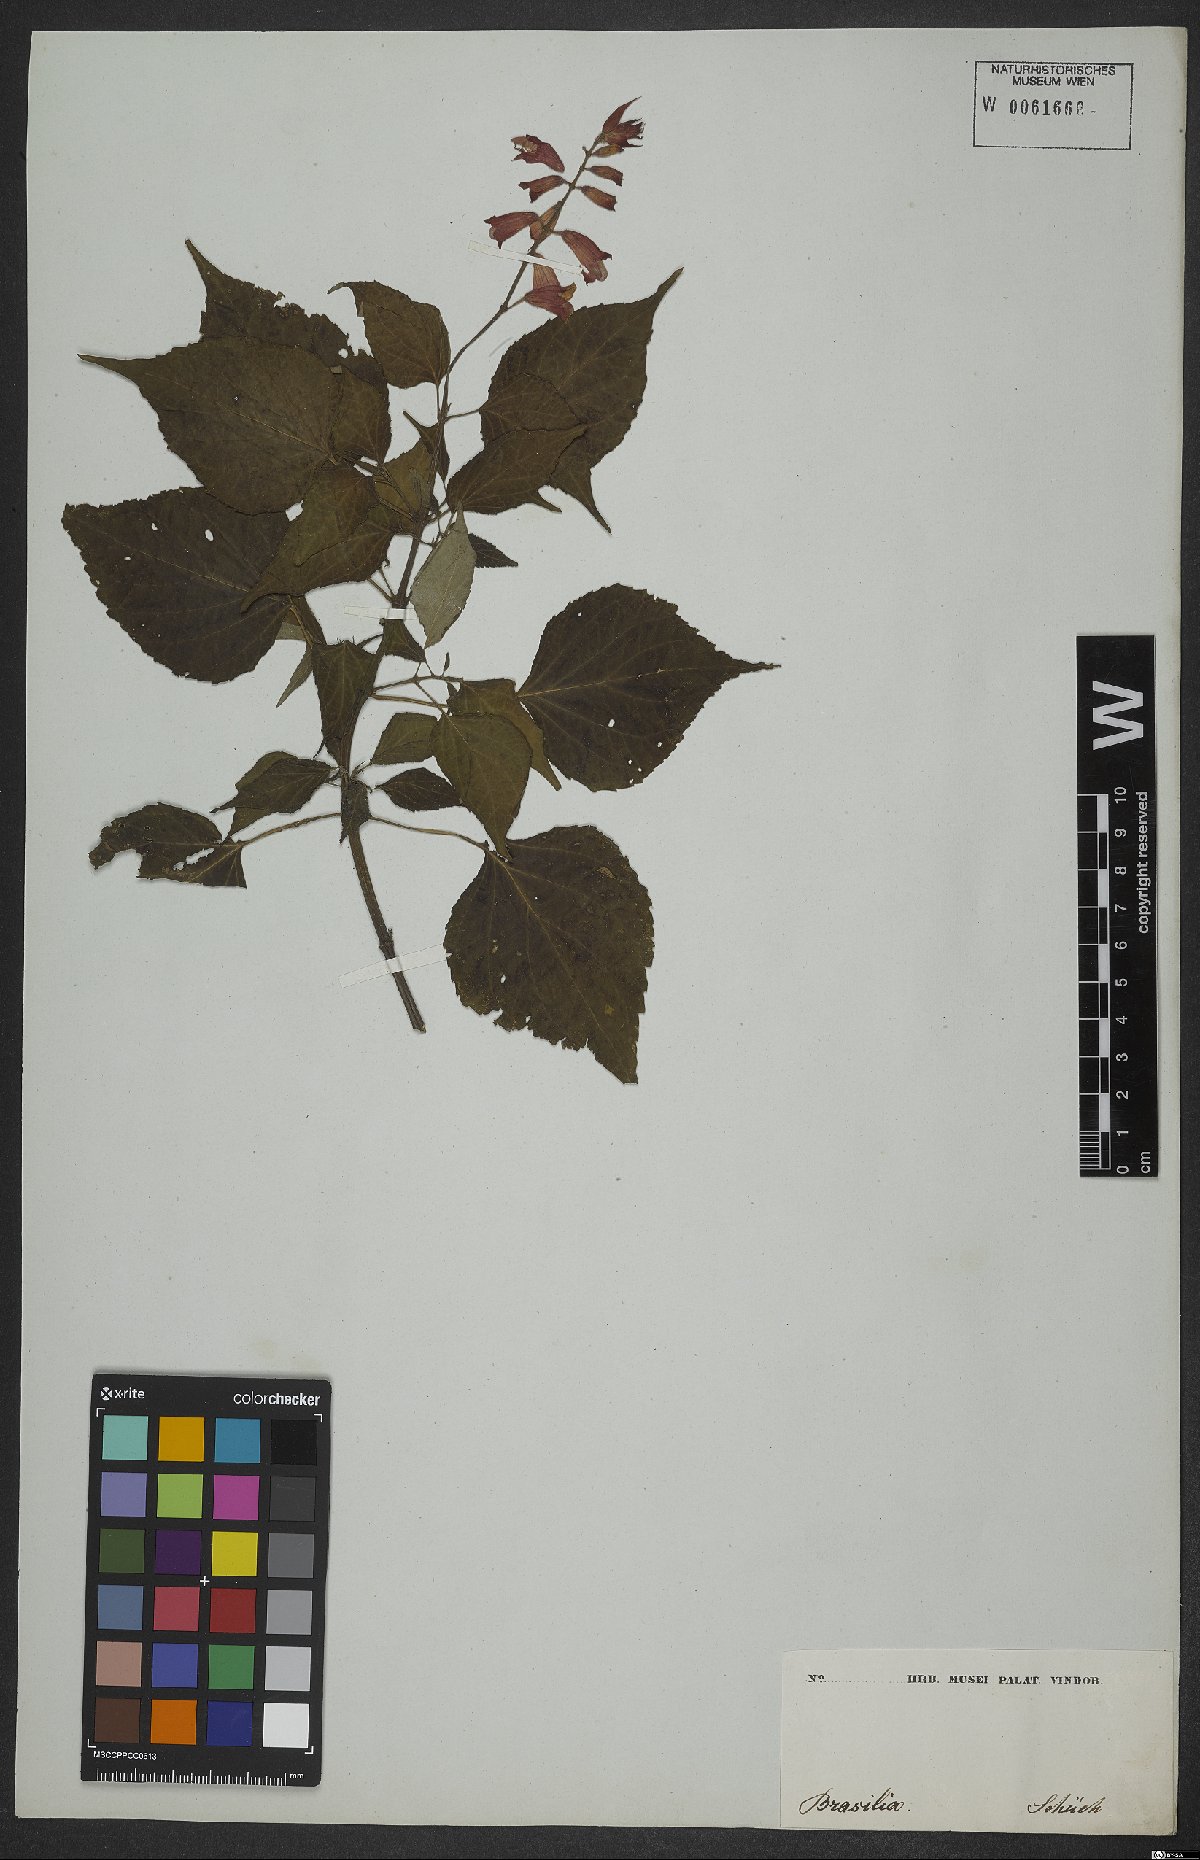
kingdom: Plantae
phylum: Tracheophyta
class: Magnoliopsida
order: Lamiales
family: Lamiaceae
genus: Salvia
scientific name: Salvia splendens
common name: Scarlet sage
